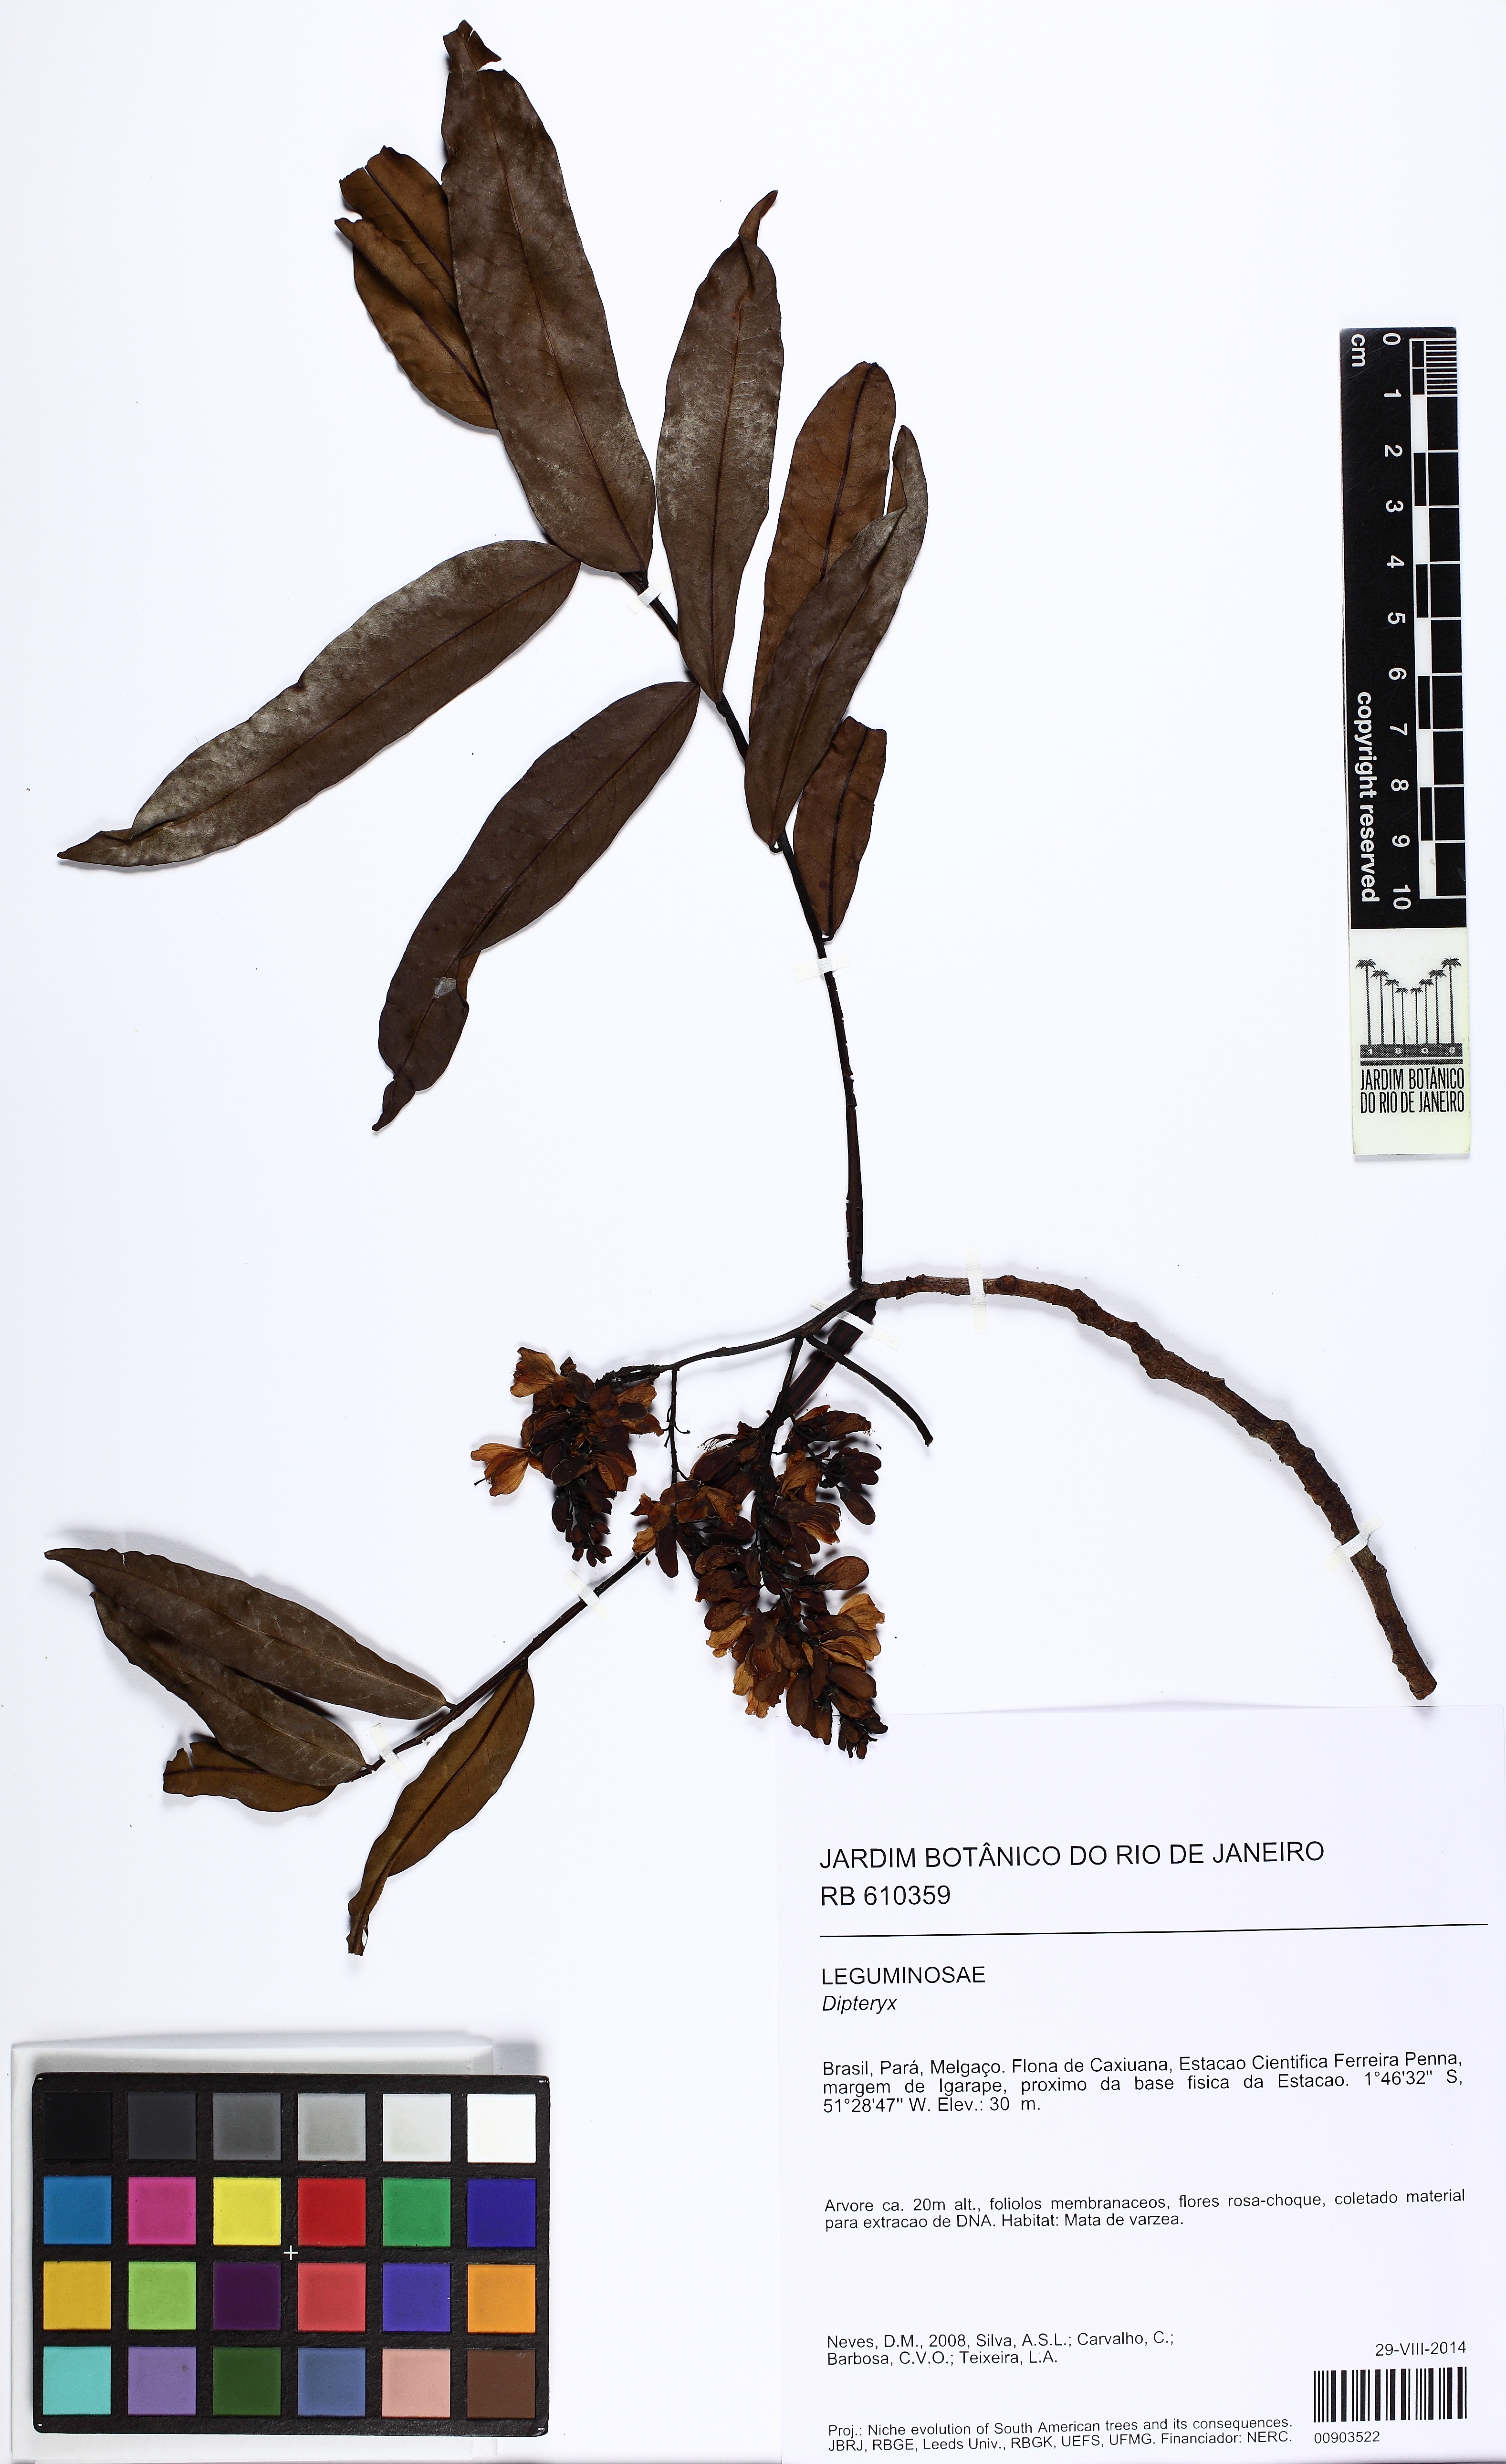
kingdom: Plantae
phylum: Tracheophyta
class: Magnoliopsida
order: Fabales
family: Fabaceae
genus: Dipteryx
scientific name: Dipteryx magnifica
